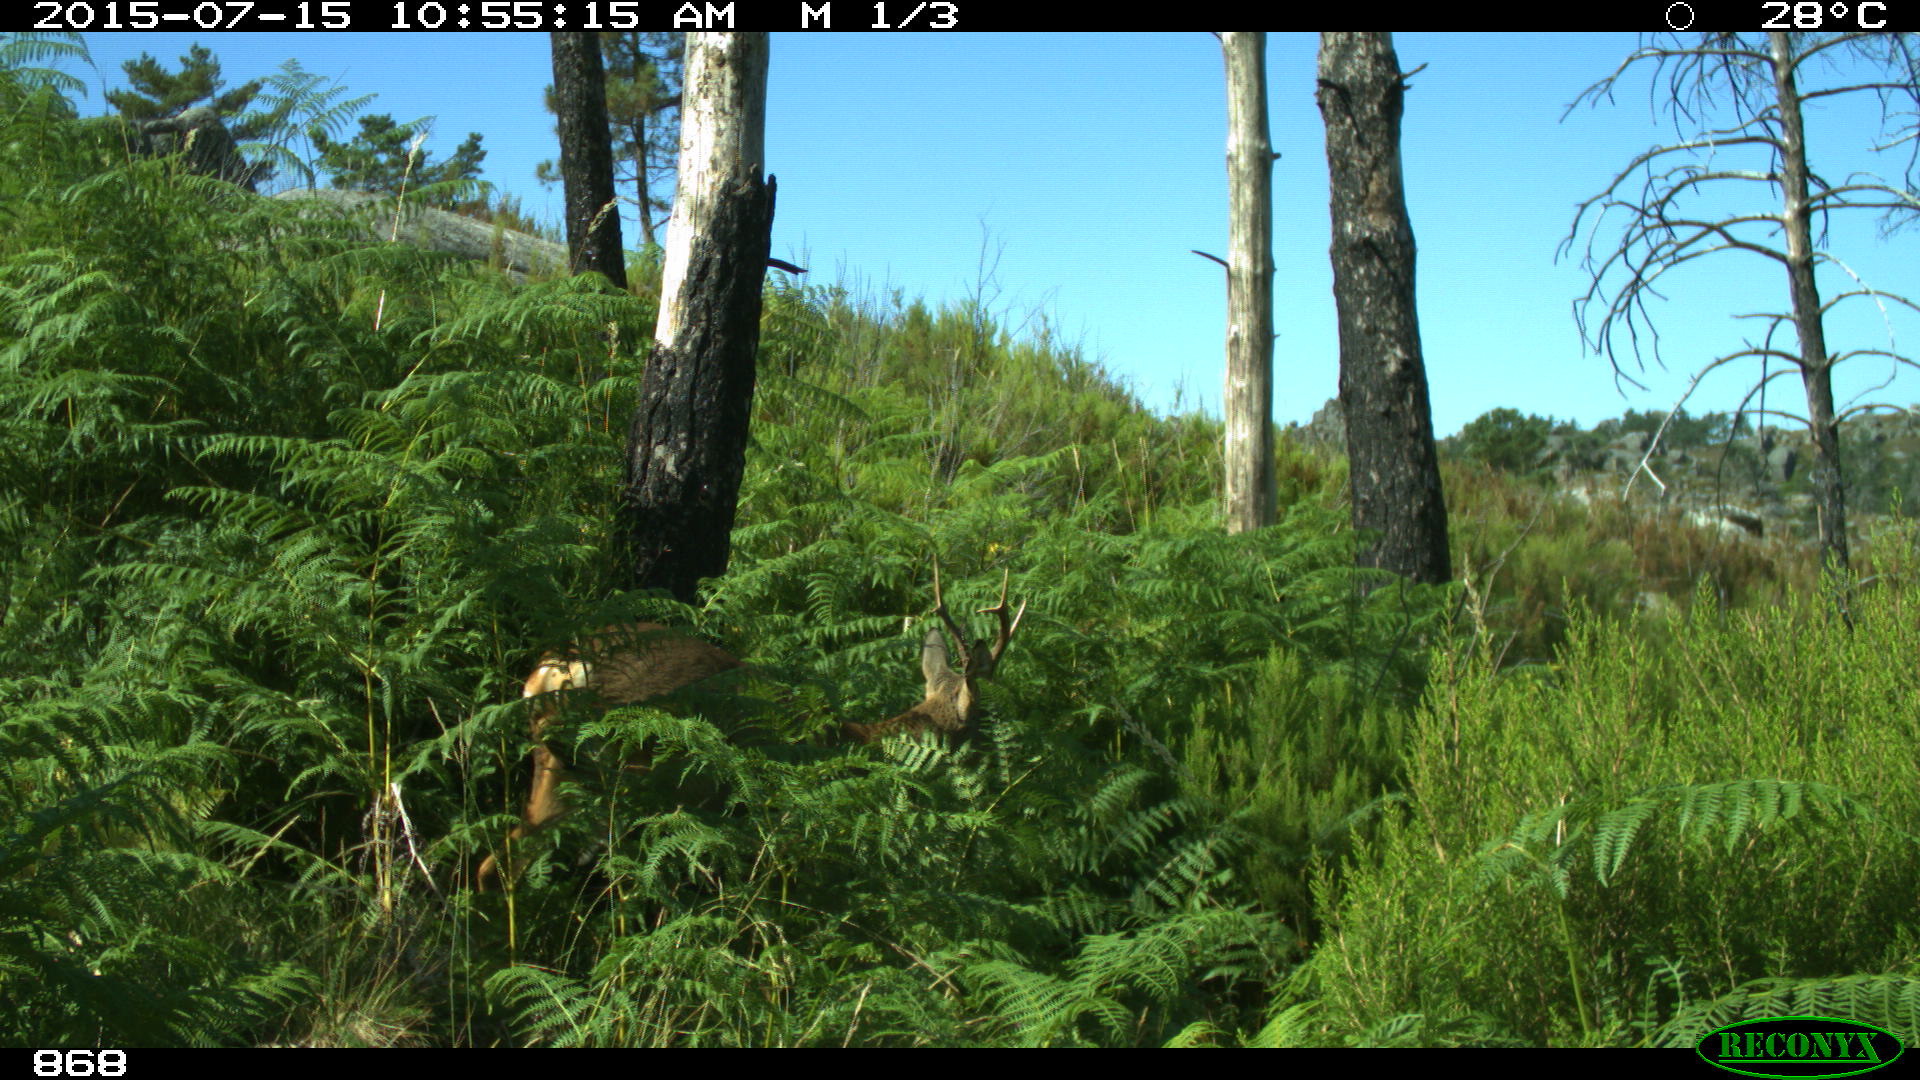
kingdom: Animalia
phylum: Chordata
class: Mammalia
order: Artiodactyla
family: Cervidae
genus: Capreolus
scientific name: Capreolus capreolus
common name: Western roe deer
